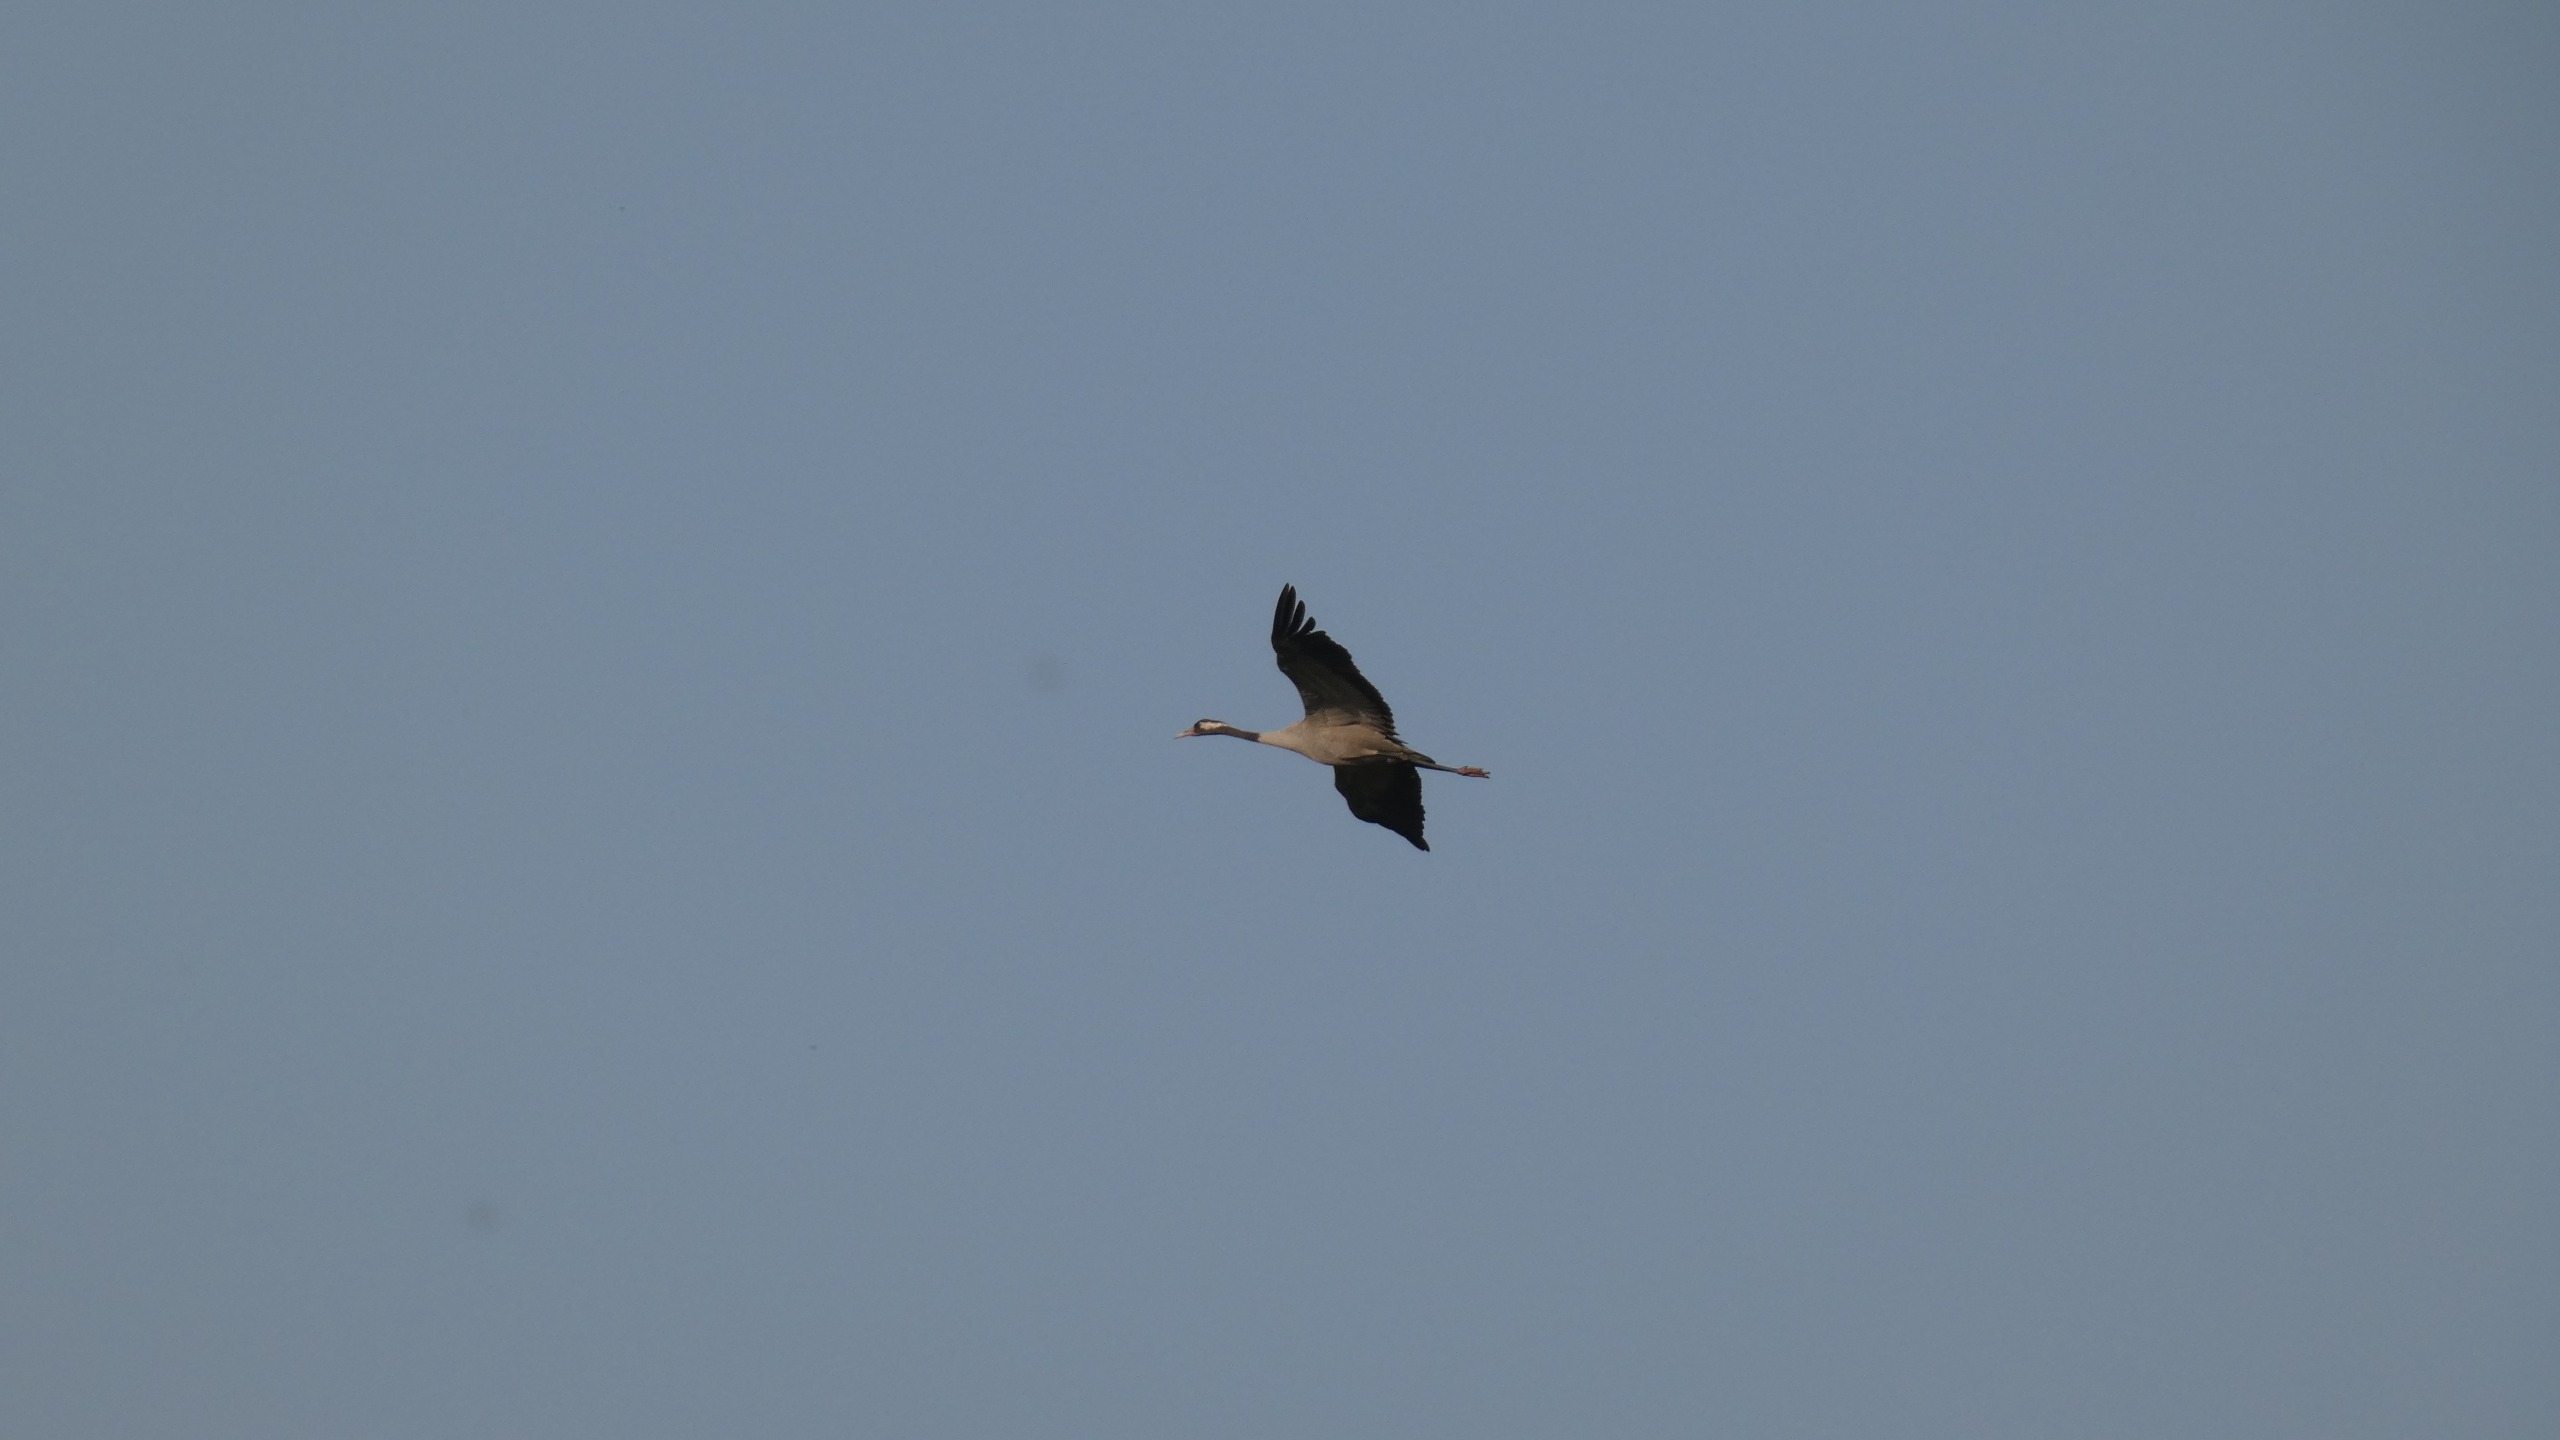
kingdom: Animalia
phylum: Chordata
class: Aves
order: Gruiformes
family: Gruidae
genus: Grus
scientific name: Grus grus
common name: Trane
